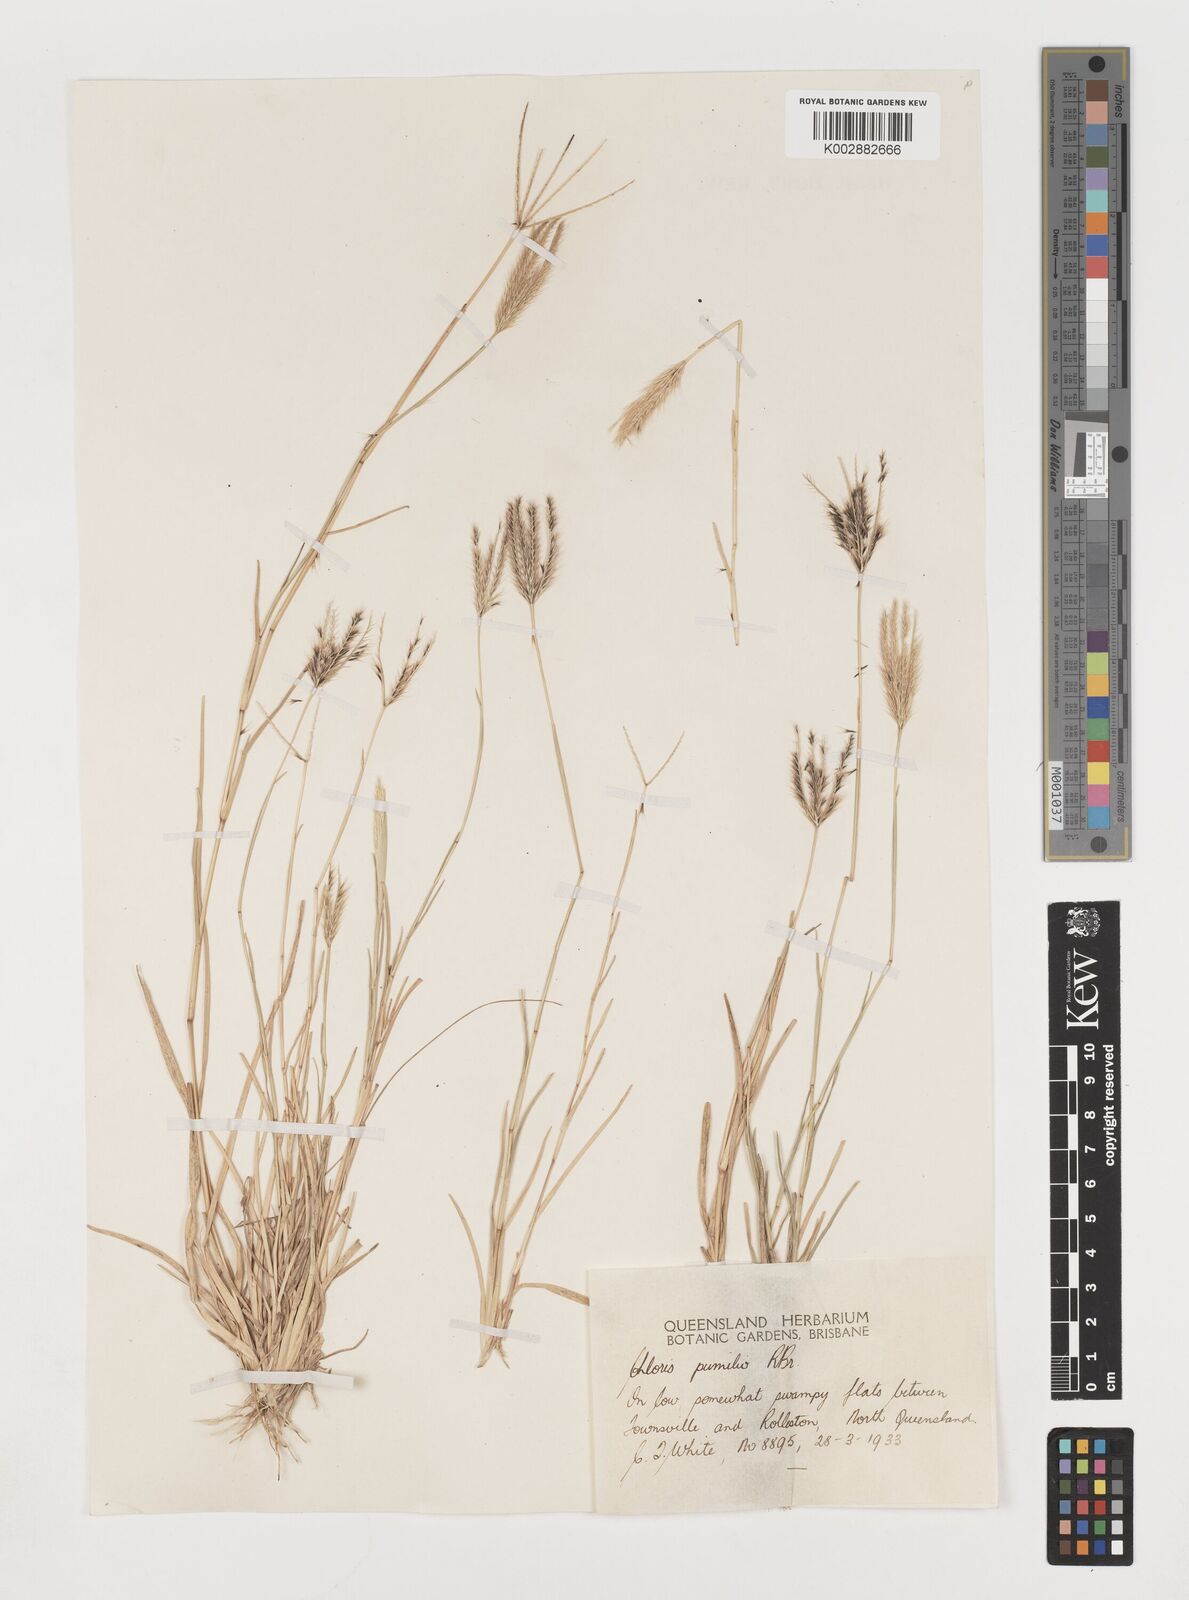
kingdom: Plantae
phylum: Tracheophyta
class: Liliopsida
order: Poales
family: Poaceae
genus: Chloris
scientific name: Chloris lobata
